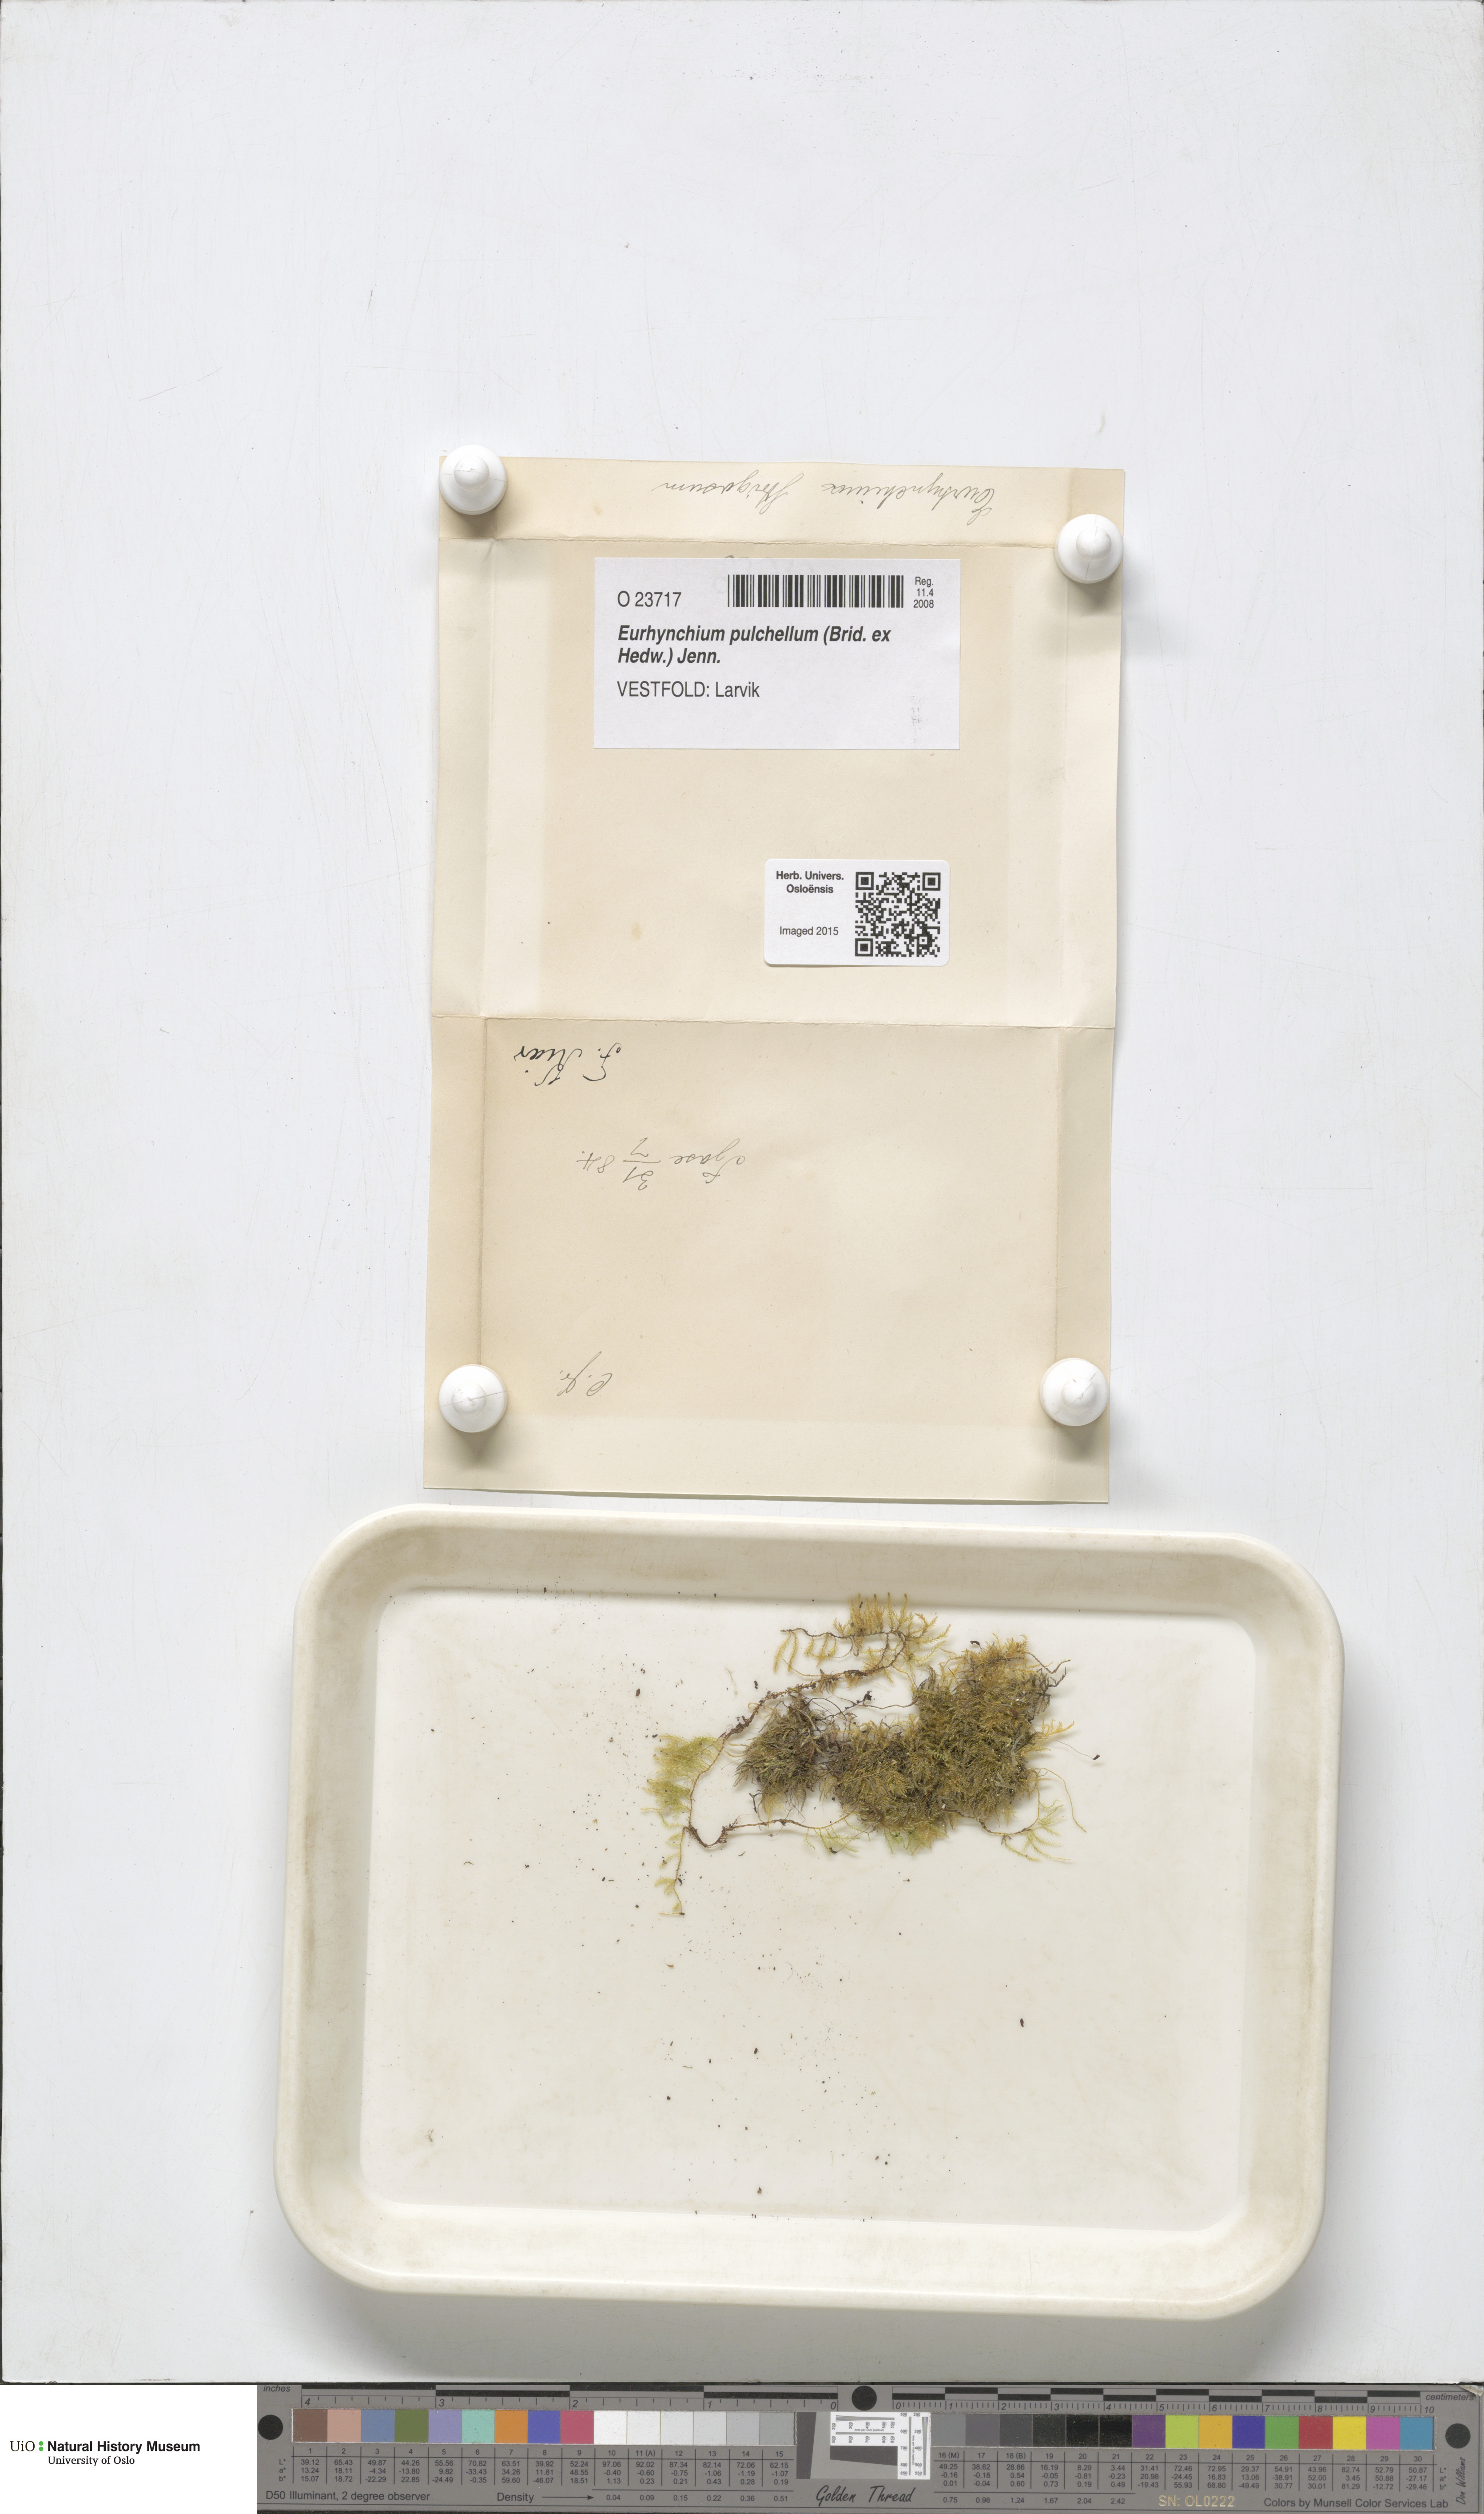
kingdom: Plantae
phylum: Bryophyta
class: Bryopsida
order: Hypnales
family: Brachytheciaceae
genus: Eurhynchiastrum
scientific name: Eurhynchiastrum pulchellum
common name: Elegant beaked moss
